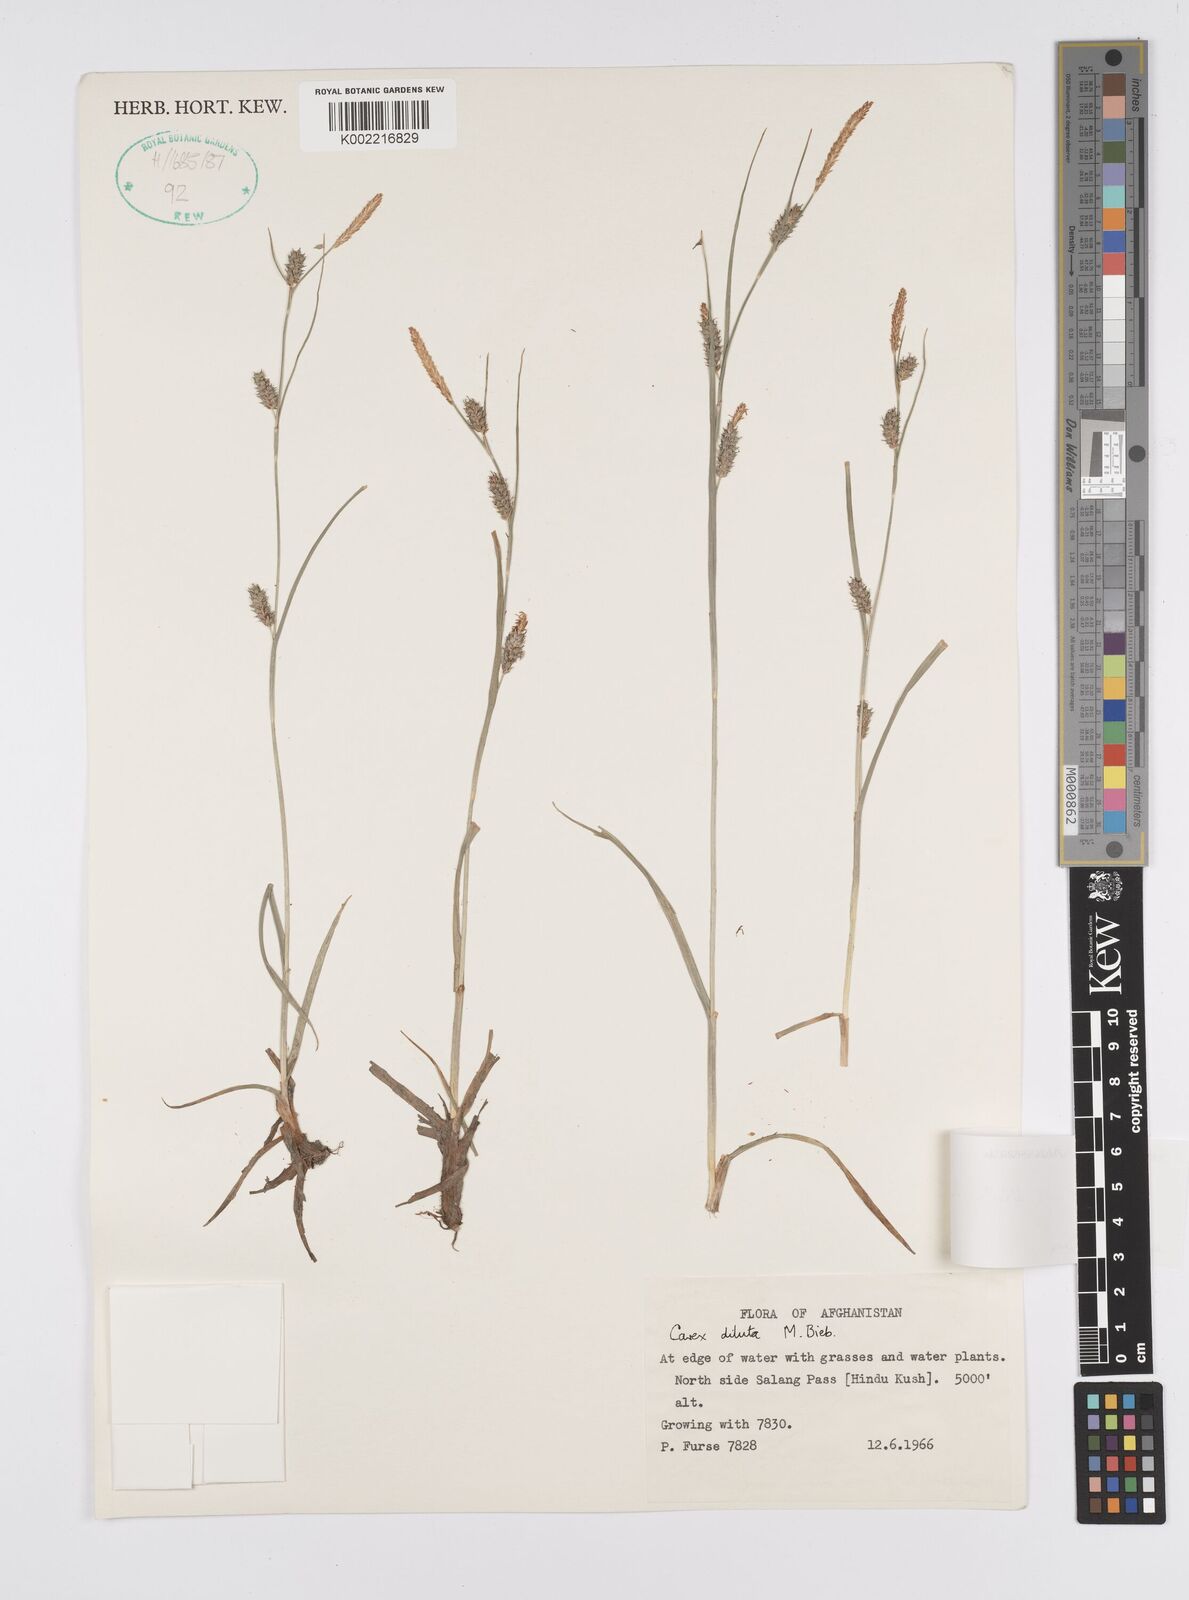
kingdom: Plantae
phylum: Tracheophyta
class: Liliopsida
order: Poales
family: Cyperaceae
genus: Carex
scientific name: Carex diluta
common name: Sedge
